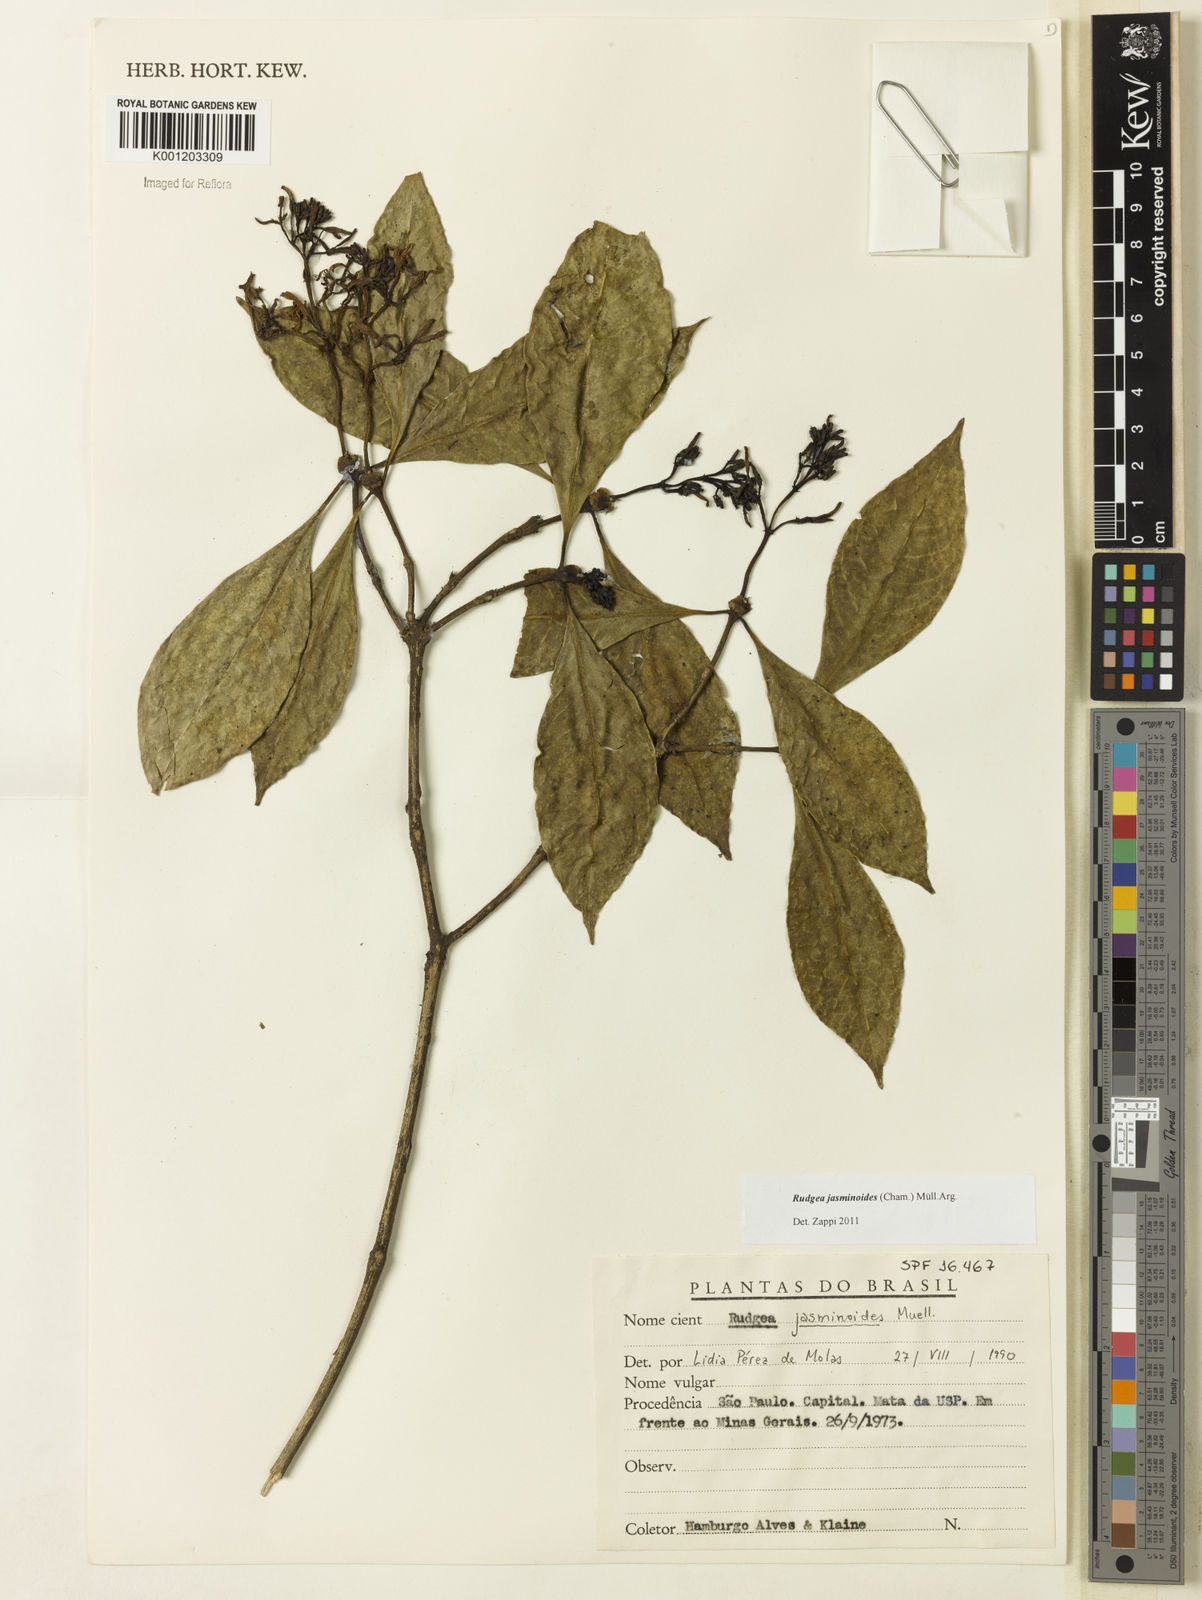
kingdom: Plantae
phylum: Tracheophyta
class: Magnoliopsida
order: Gentianales
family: Rubiaceae
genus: Rudgea
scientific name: Rudgea
